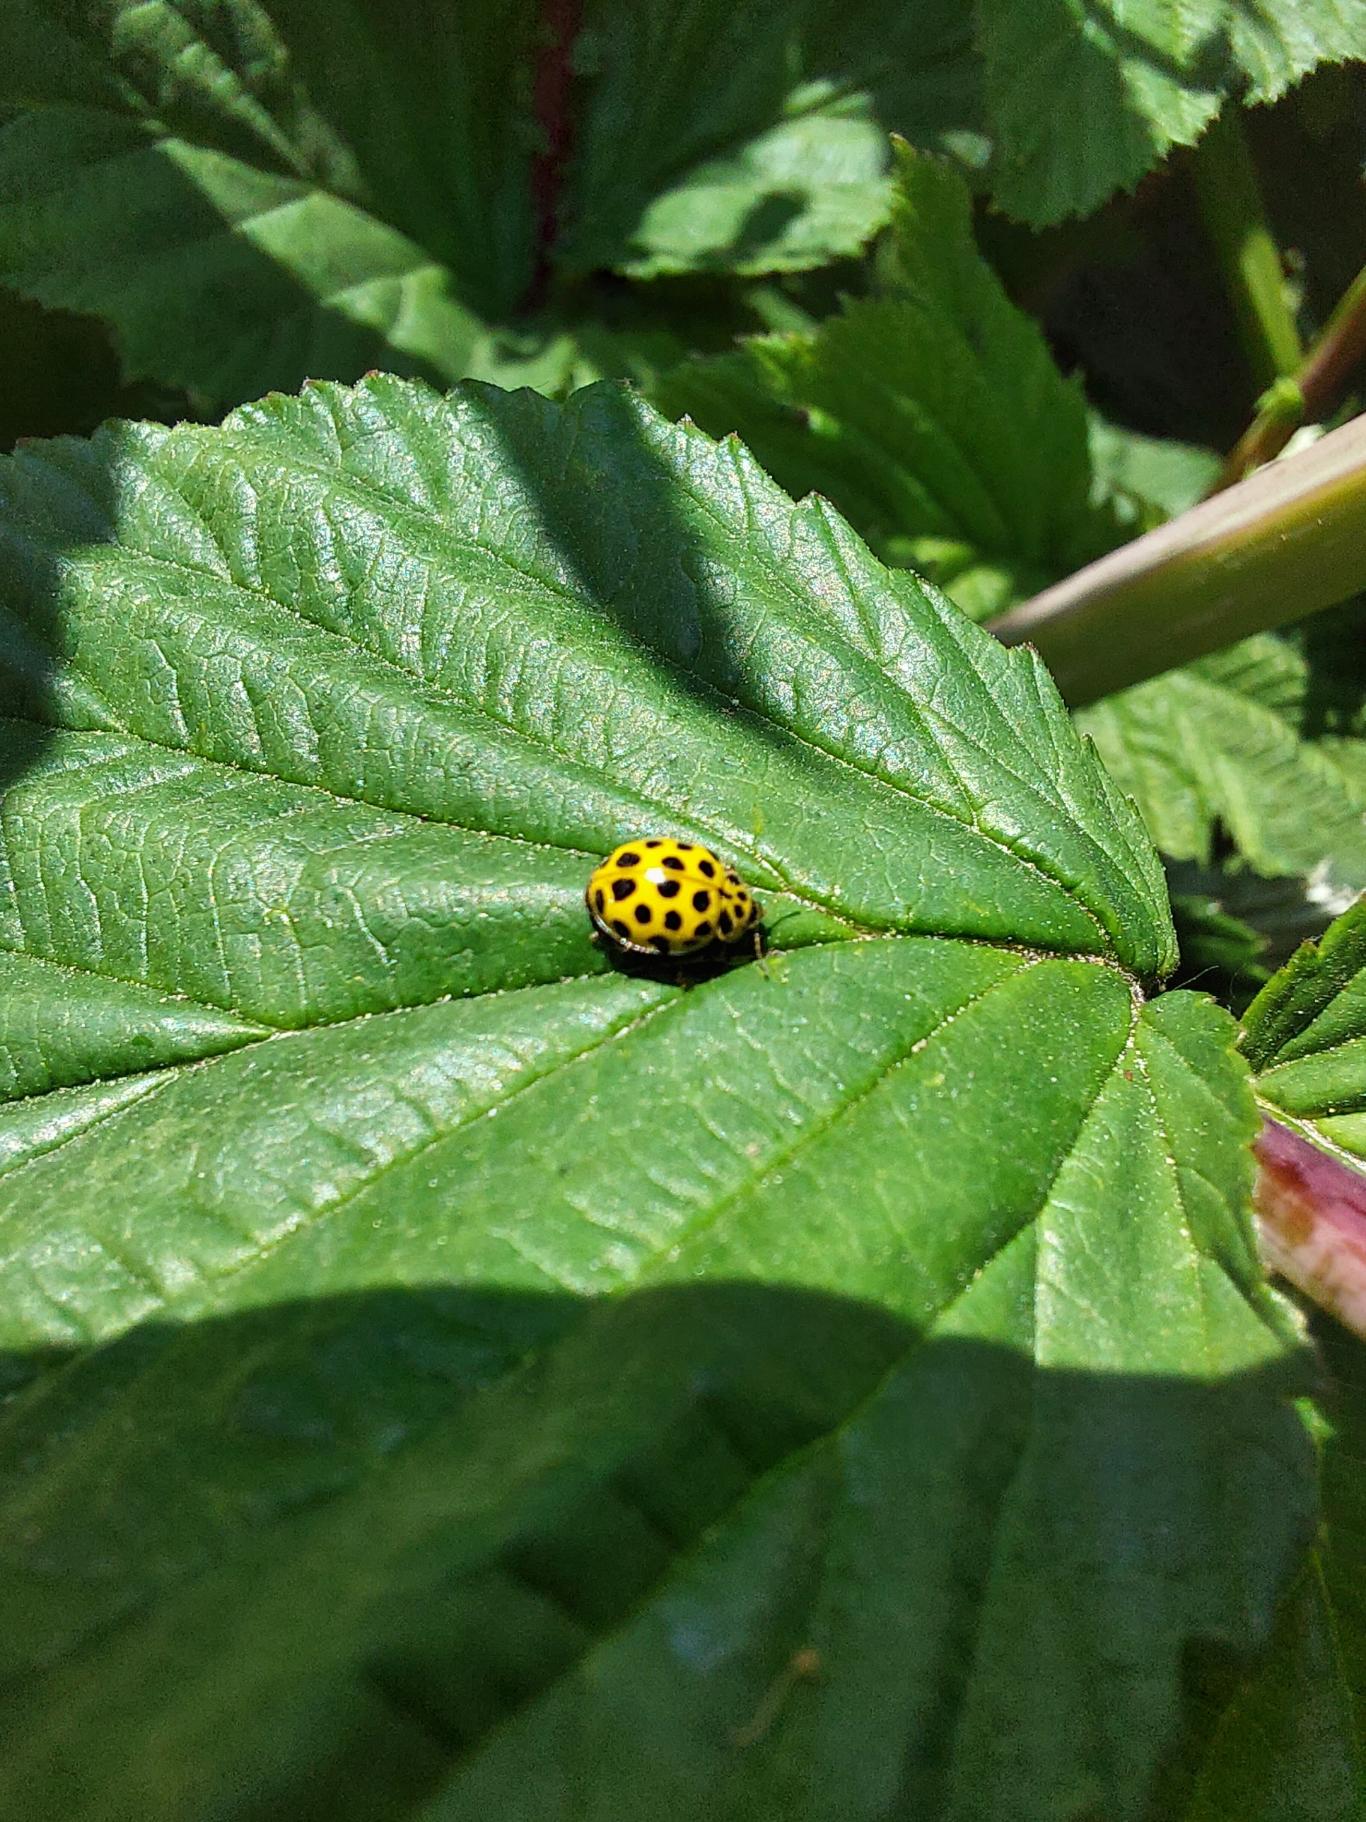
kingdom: Animalia
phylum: Arthropoda
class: Insecta
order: Coleoptera
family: Coccinellidae
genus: Psyllobora
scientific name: Psyllobora vigintiduopunctata
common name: Toogtyveplettet mariehøne
